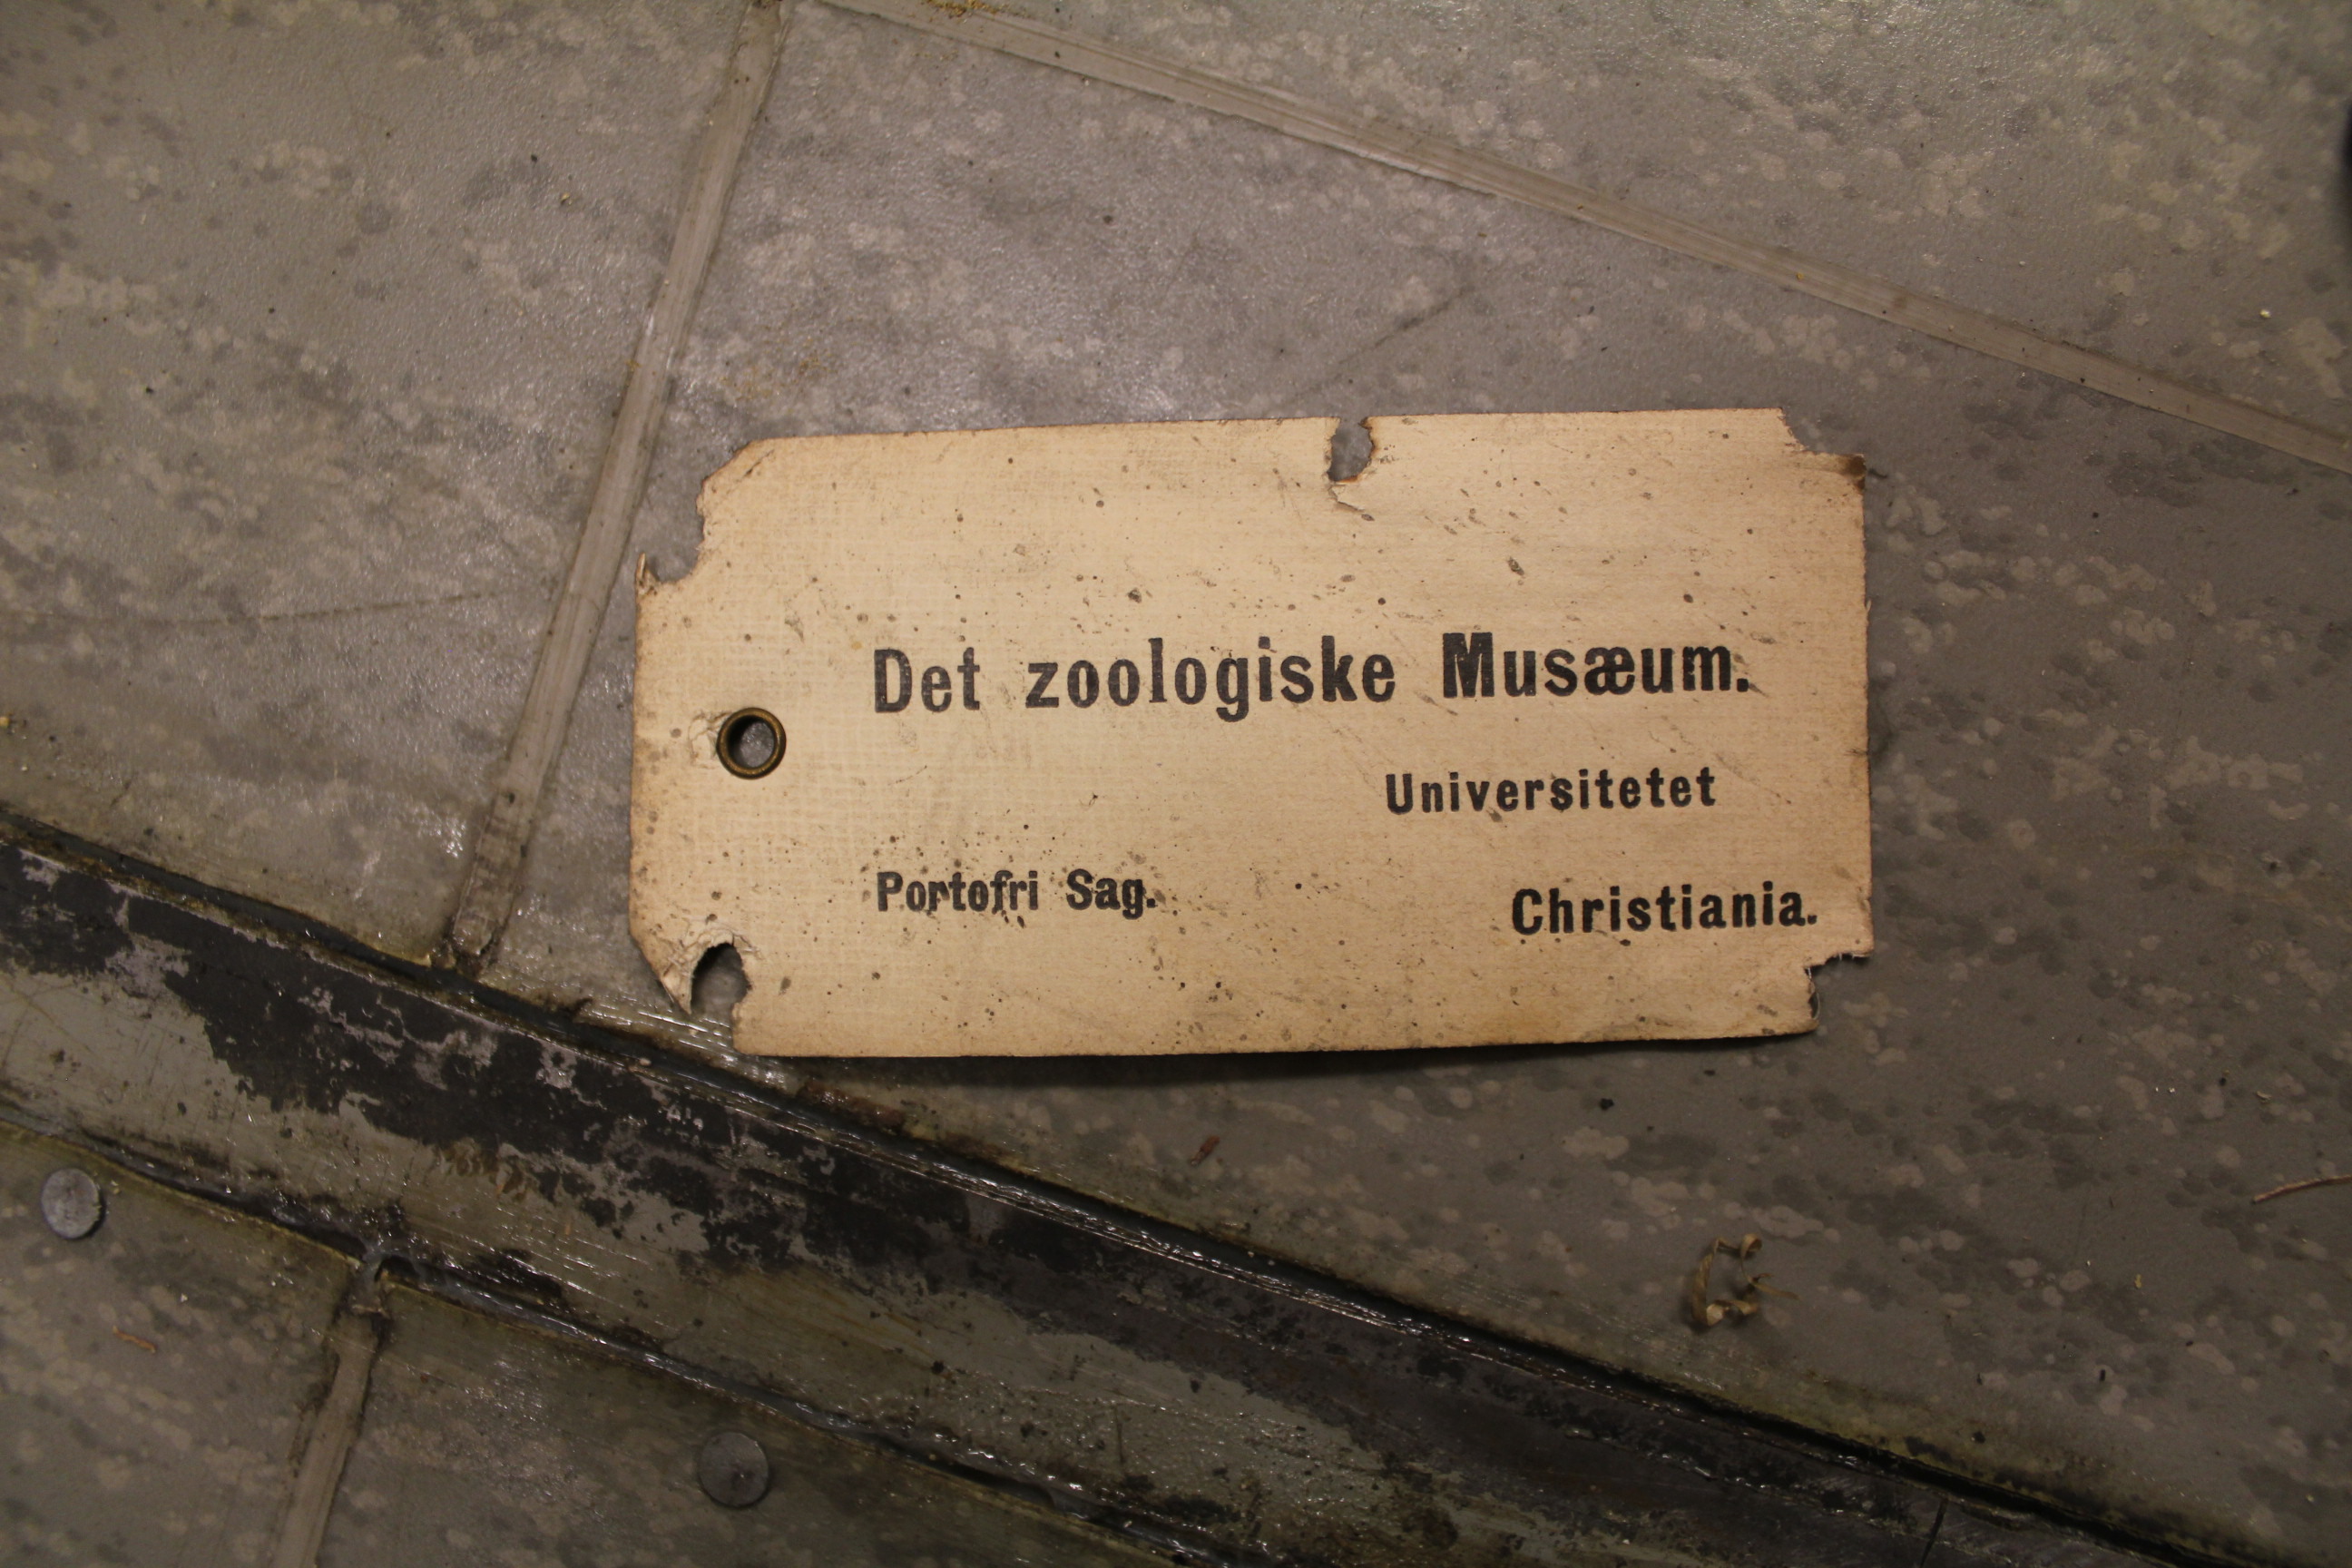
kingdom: Animalia
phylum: Chordata
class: Mammalia
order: Cetacea
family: Delphinidae
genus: Delphinus
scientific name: Delphinus
